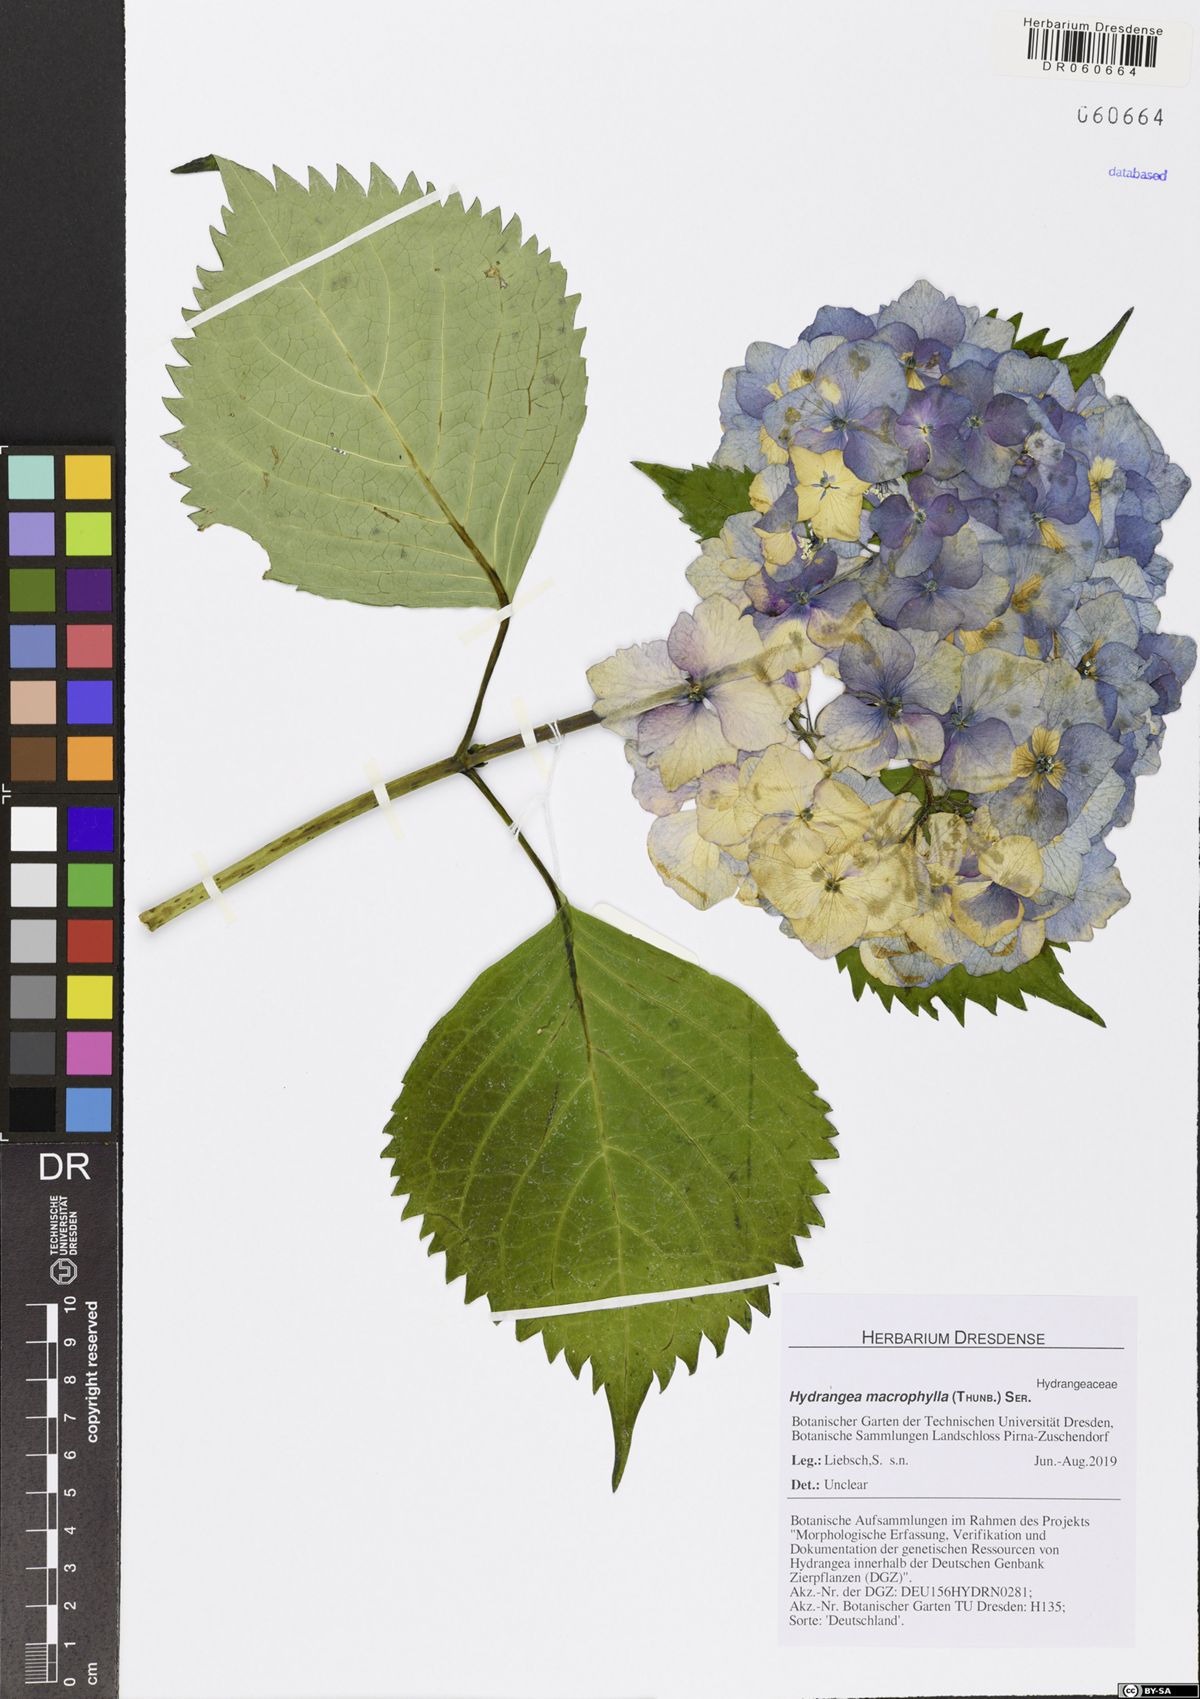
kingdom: Plantae
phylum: Tracheophyta
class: Magnoliopsida
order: Cornales
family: Hydrangeaceae
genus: Hydrangea
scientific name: Hydrangea macrophylla
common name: Hydrangea
